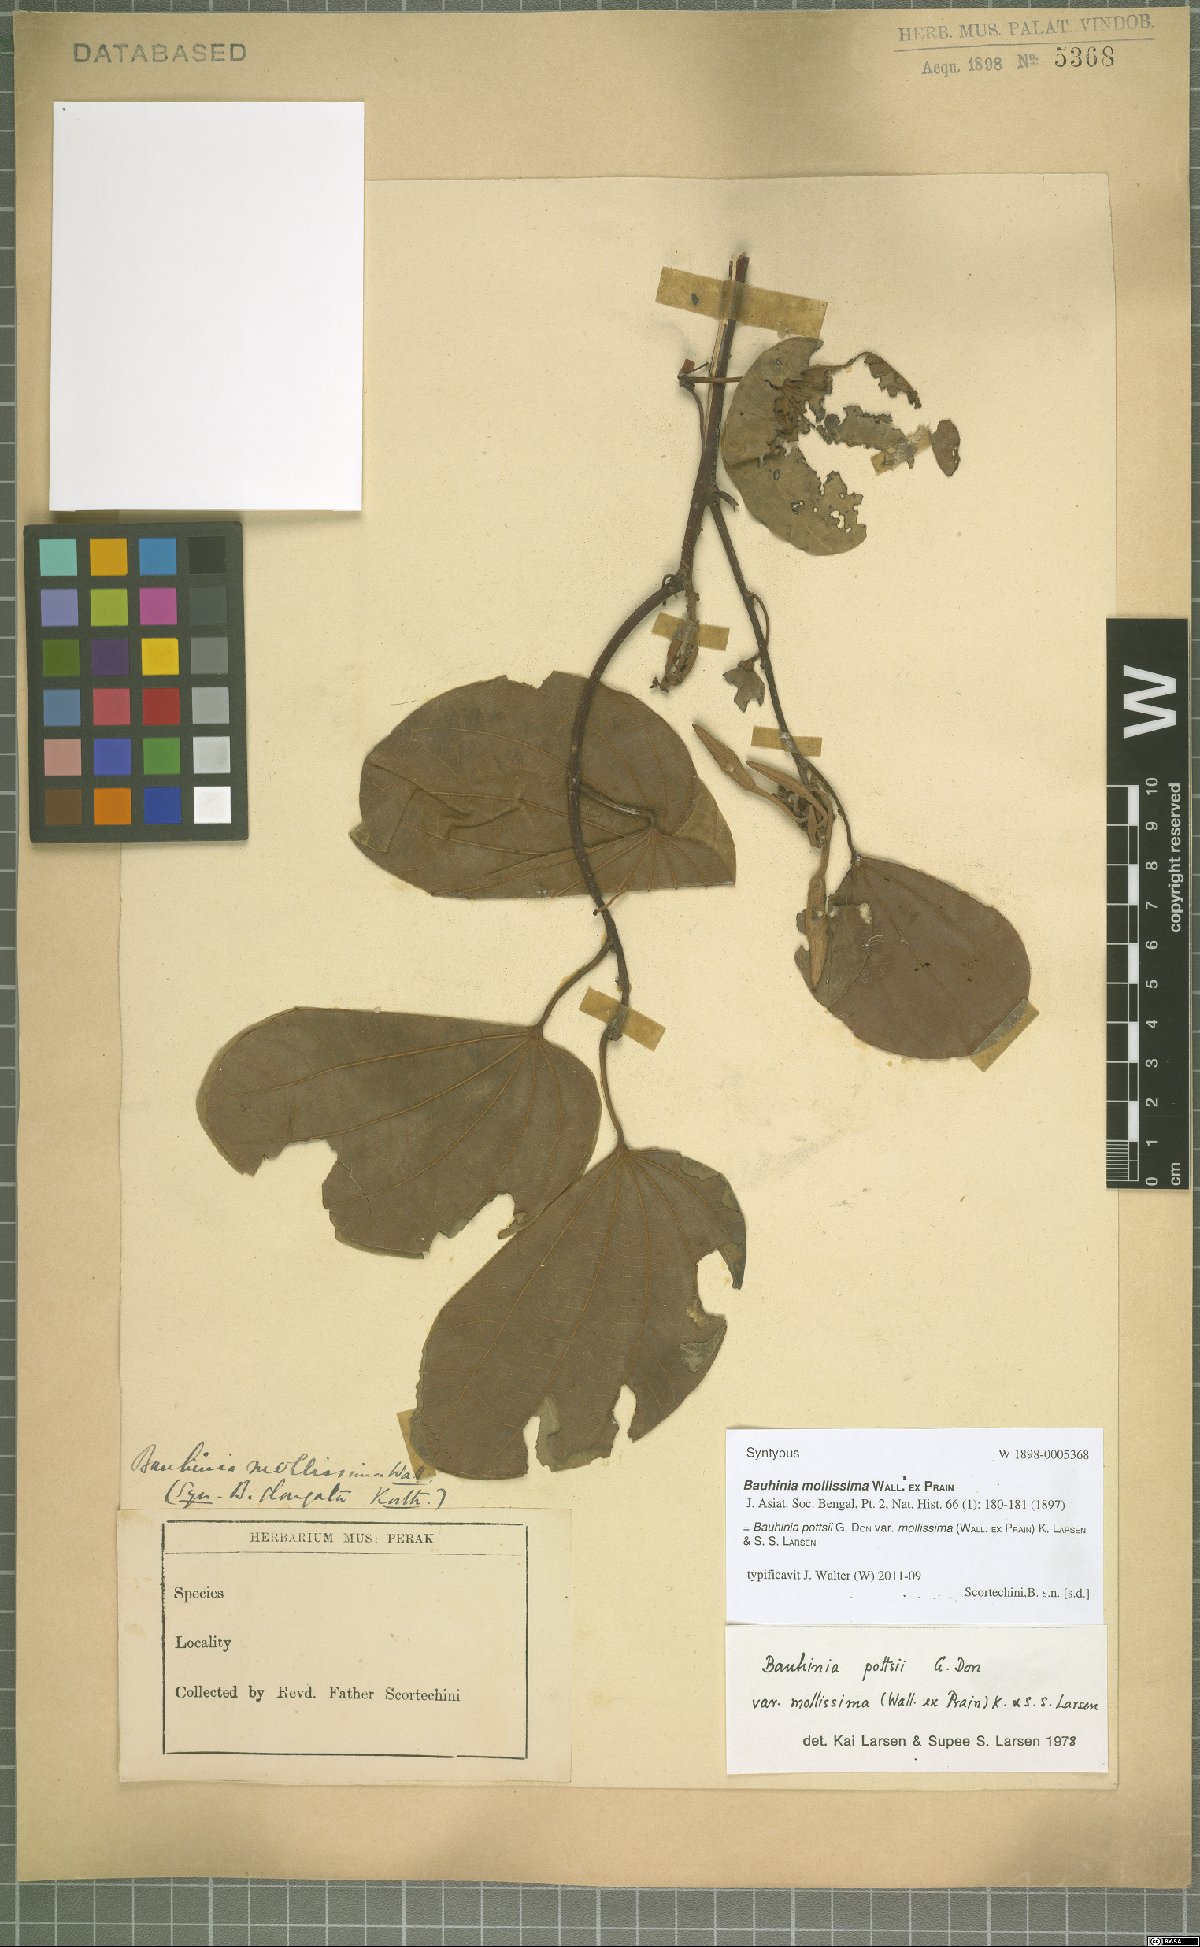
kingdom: Plantae
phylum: Tracheophyta
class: Magnoliopsida
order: Fabales
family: Fabaceae
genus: Bauhinia
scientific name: Bauhinia pottsii
